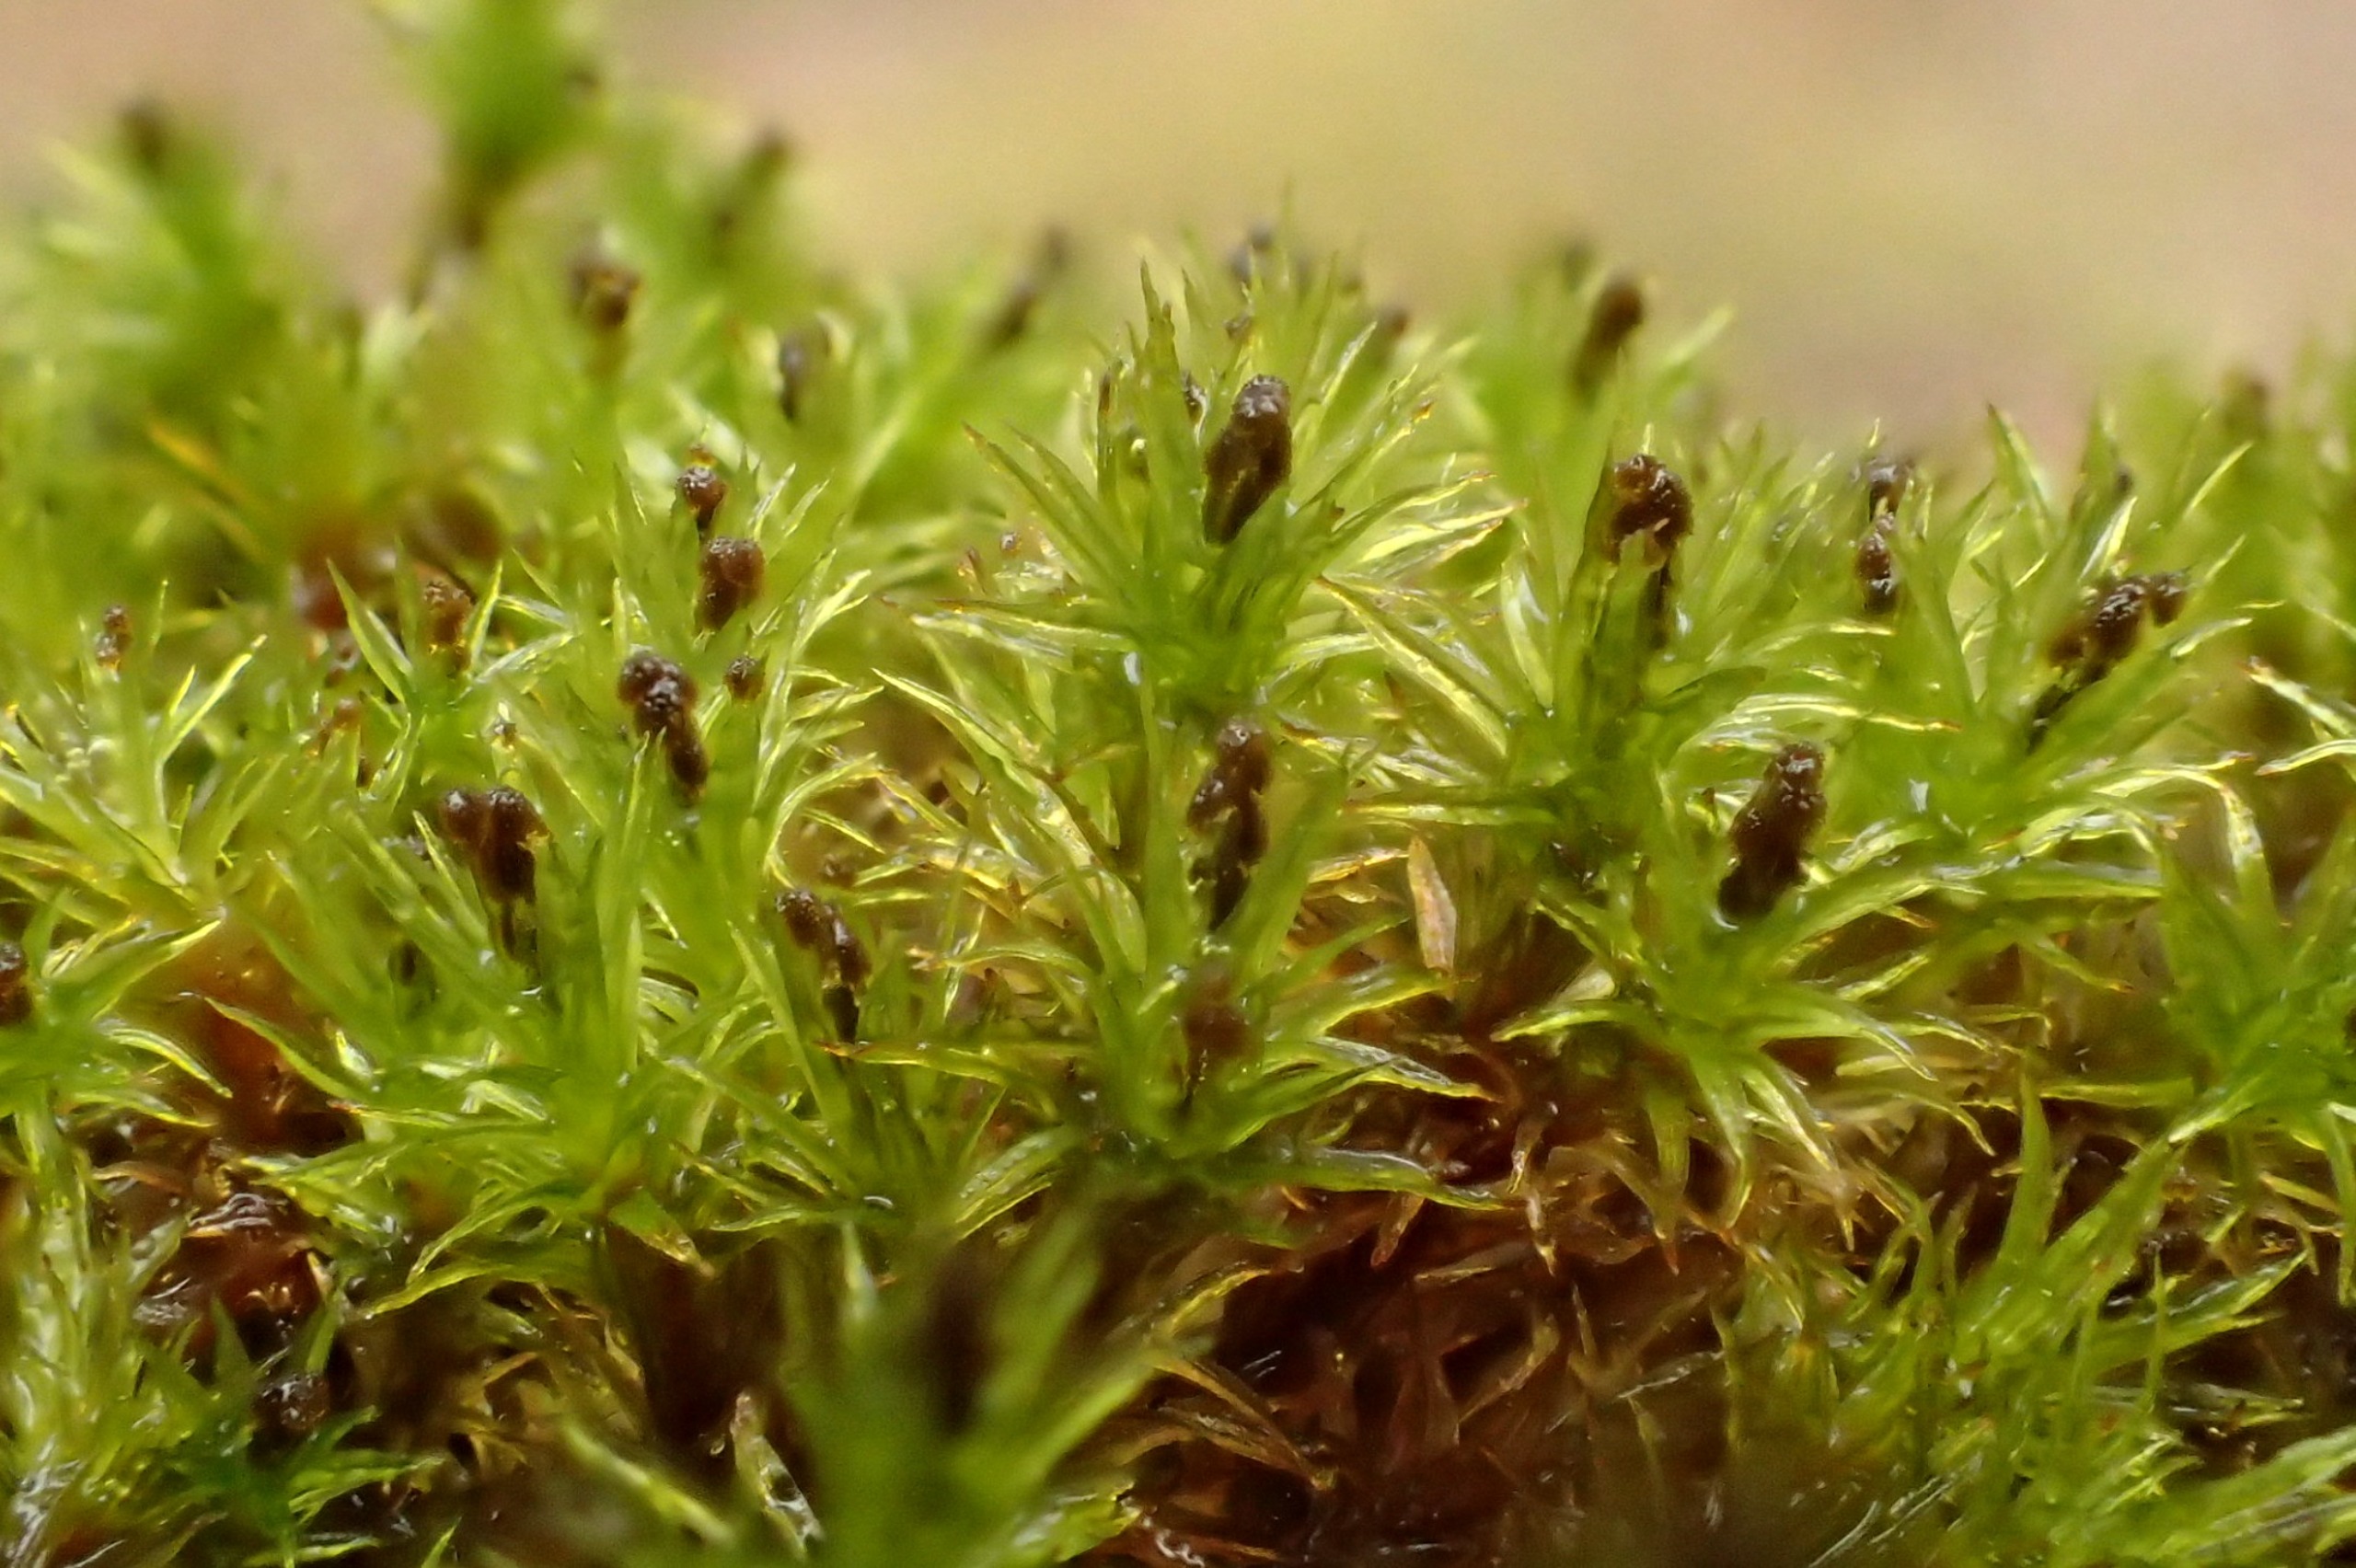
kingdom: Plantae
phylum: Bryophyta
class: Bryopsida
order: Orthotrichales
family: Orthotrichaceae
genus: Plenogemma
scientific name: Plenogemma phyllantha
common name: Stor låddenhætte
